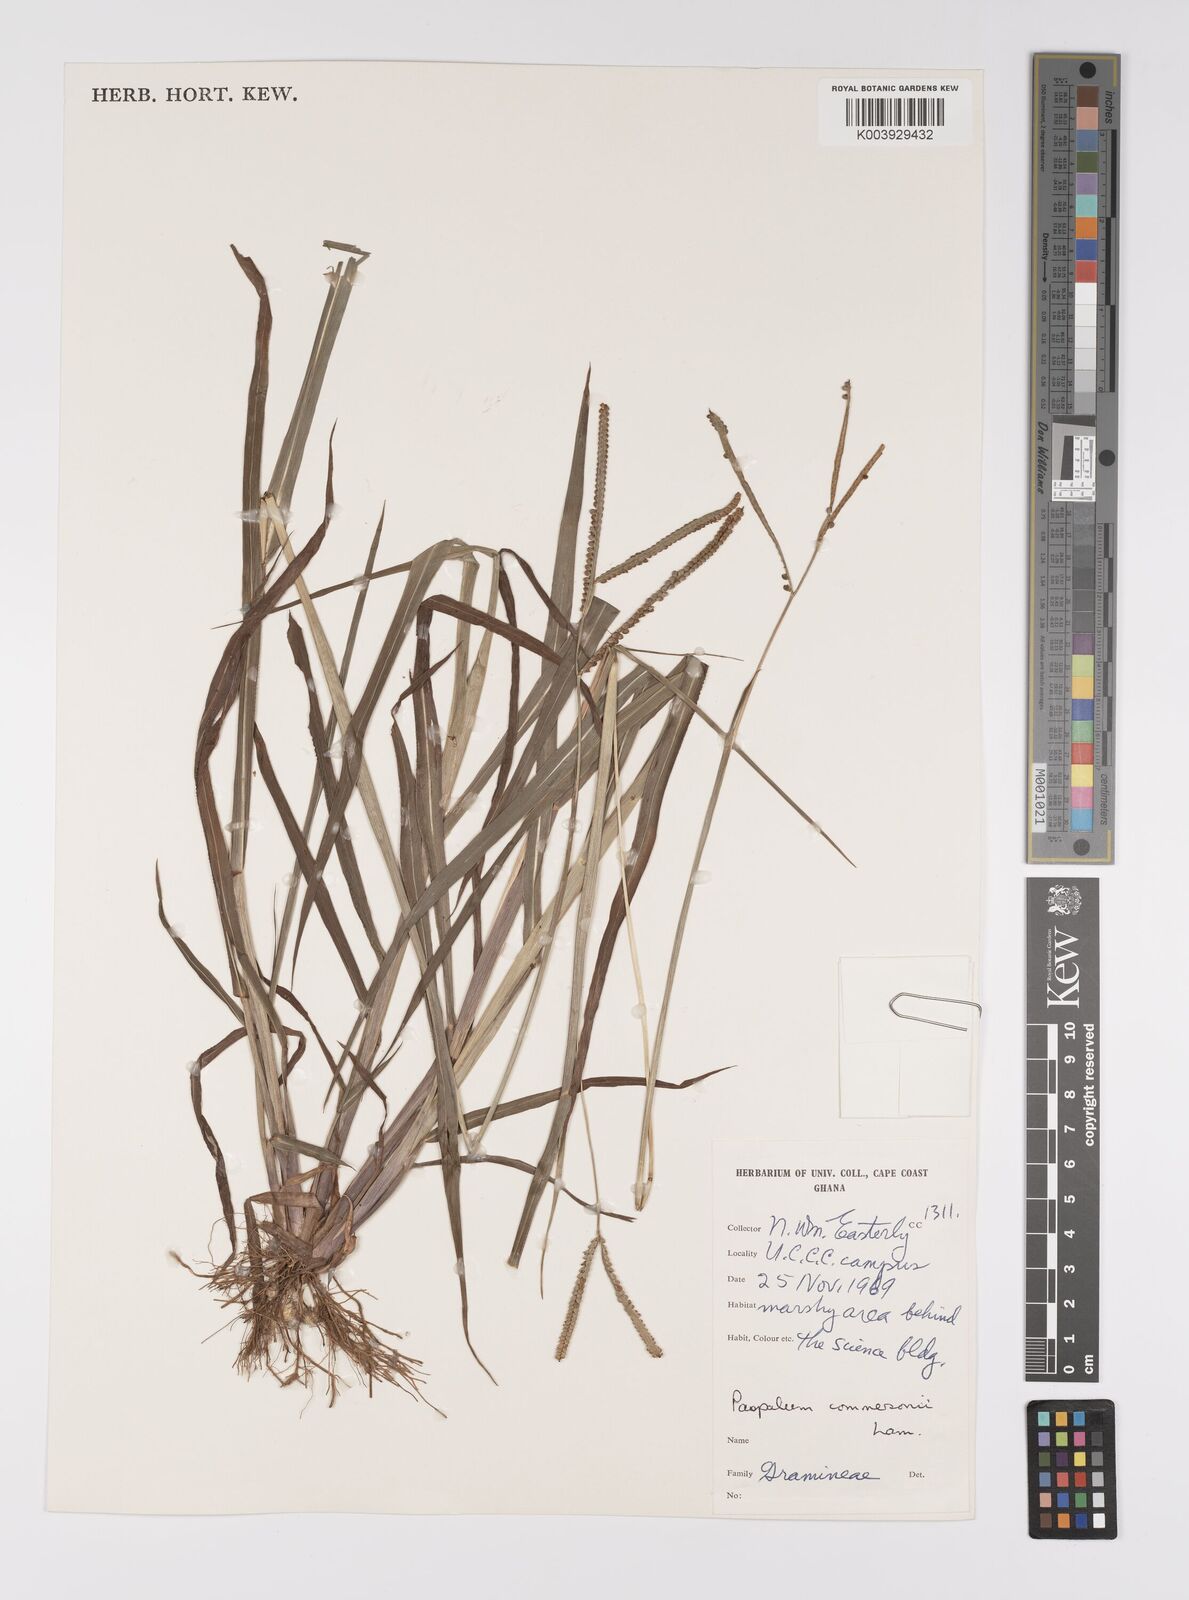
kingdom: Plantae
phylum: Tracheophyta
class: Liliopsida
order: Poales
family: Poaceae
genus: Paspalum
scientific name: Paspalum scrobiculatum
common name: Kodo millet
